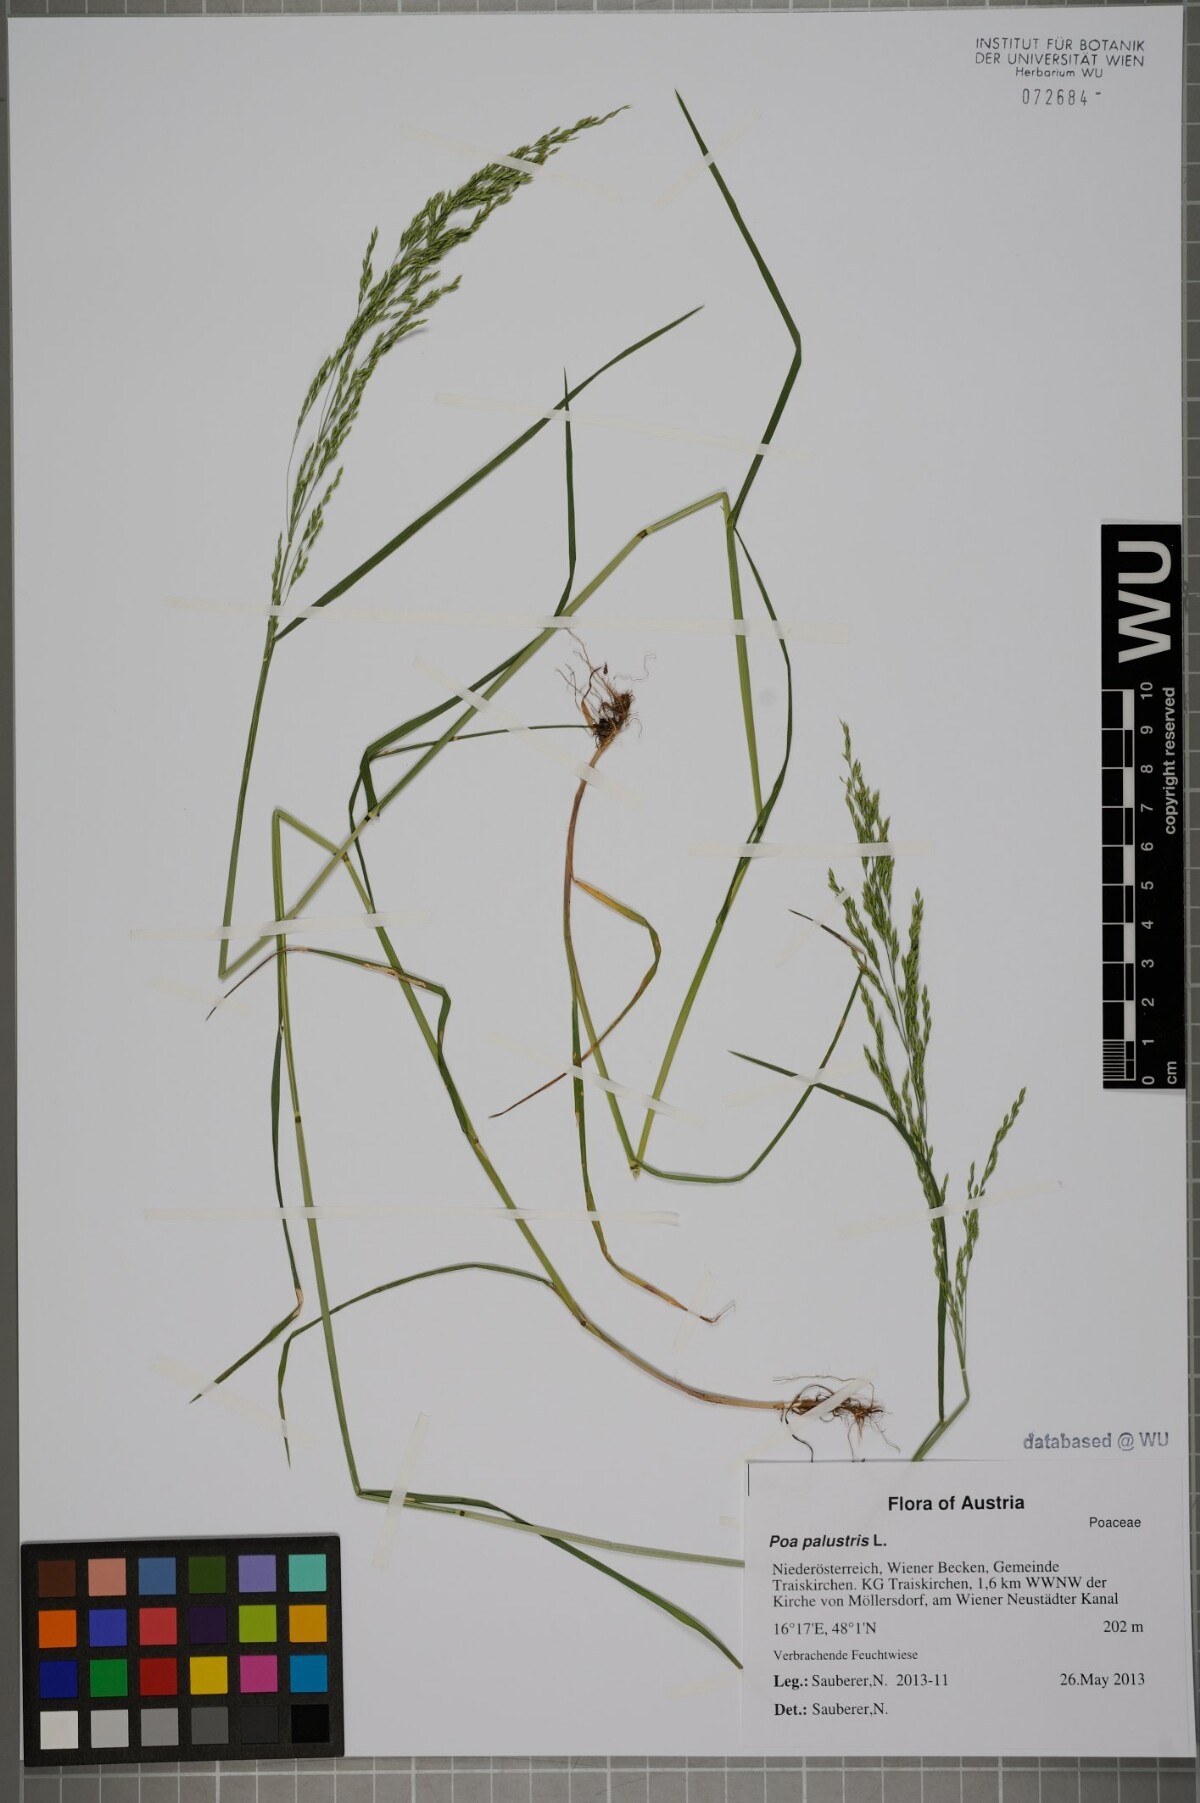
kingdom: Plantae
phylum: Tracheophyta
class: Liliopsida
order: Poales
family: Poaceae
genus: Poa
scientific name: Poa palustris
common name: Swamp meadow-grass
